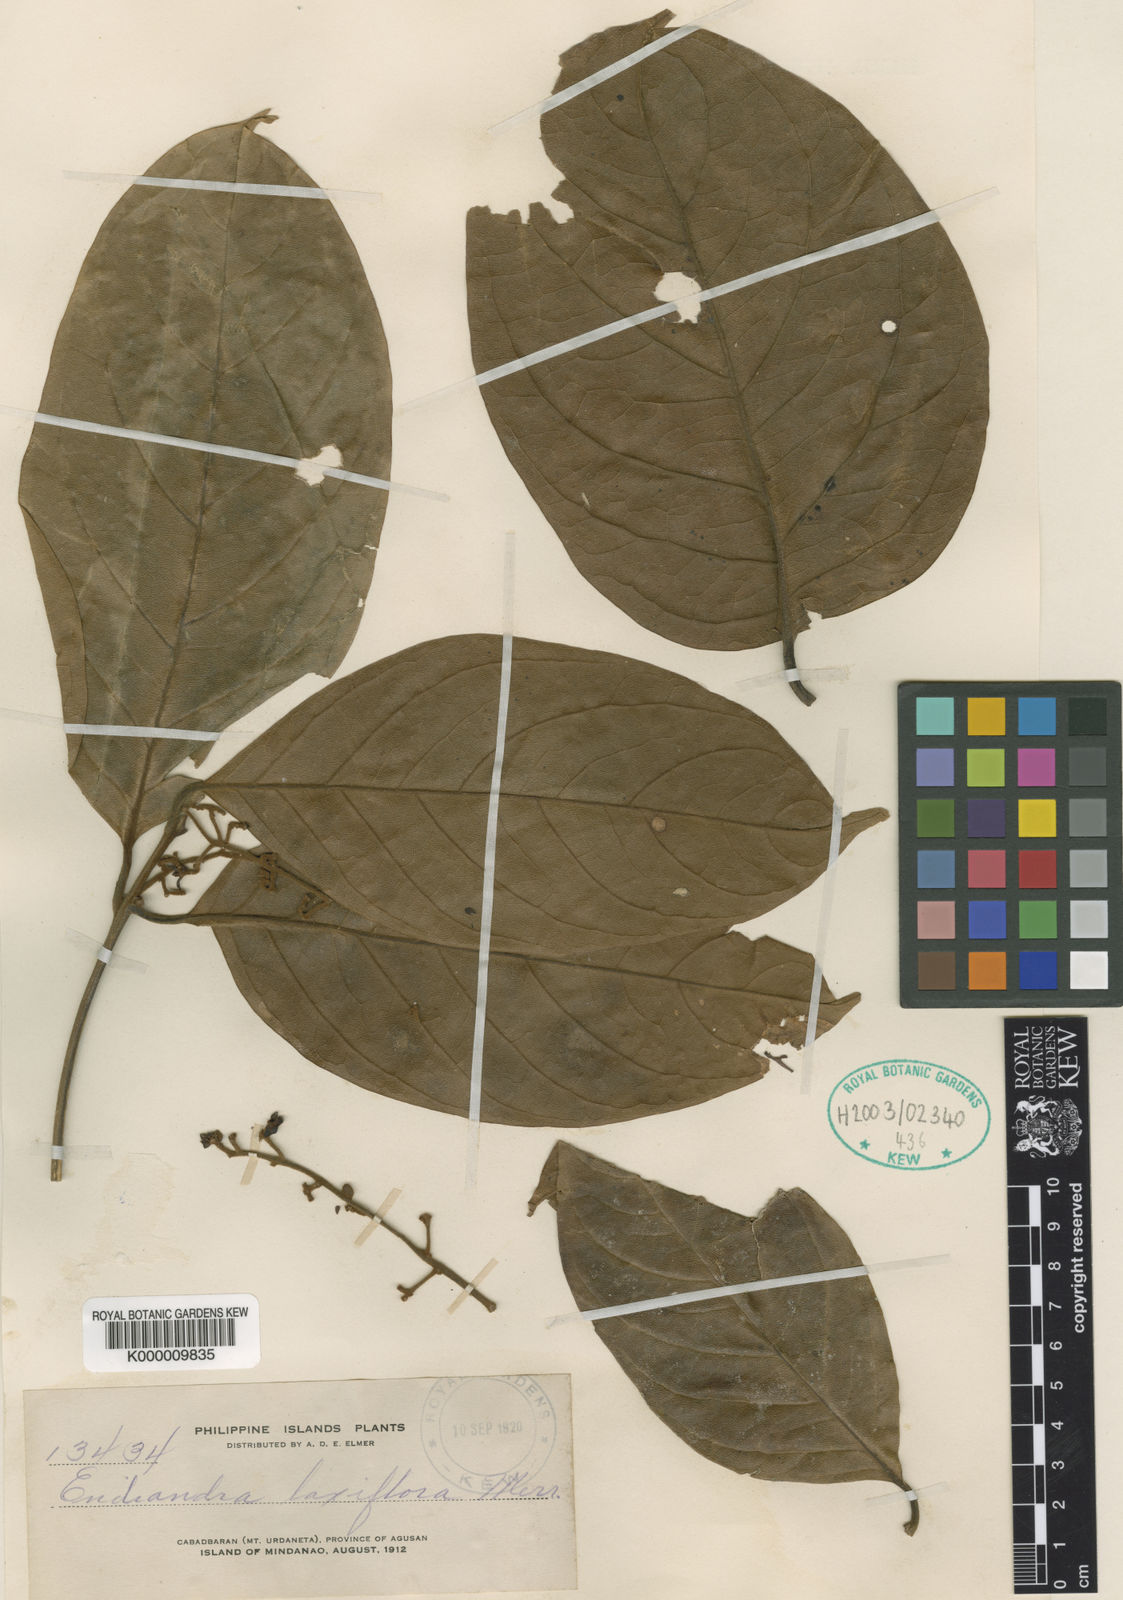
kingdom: Plantae
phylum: Tracheophyta
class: Magnoliopsida
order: Laurales
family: Lauraceae
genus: Endiandra
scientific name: Endiandra laxiflora
